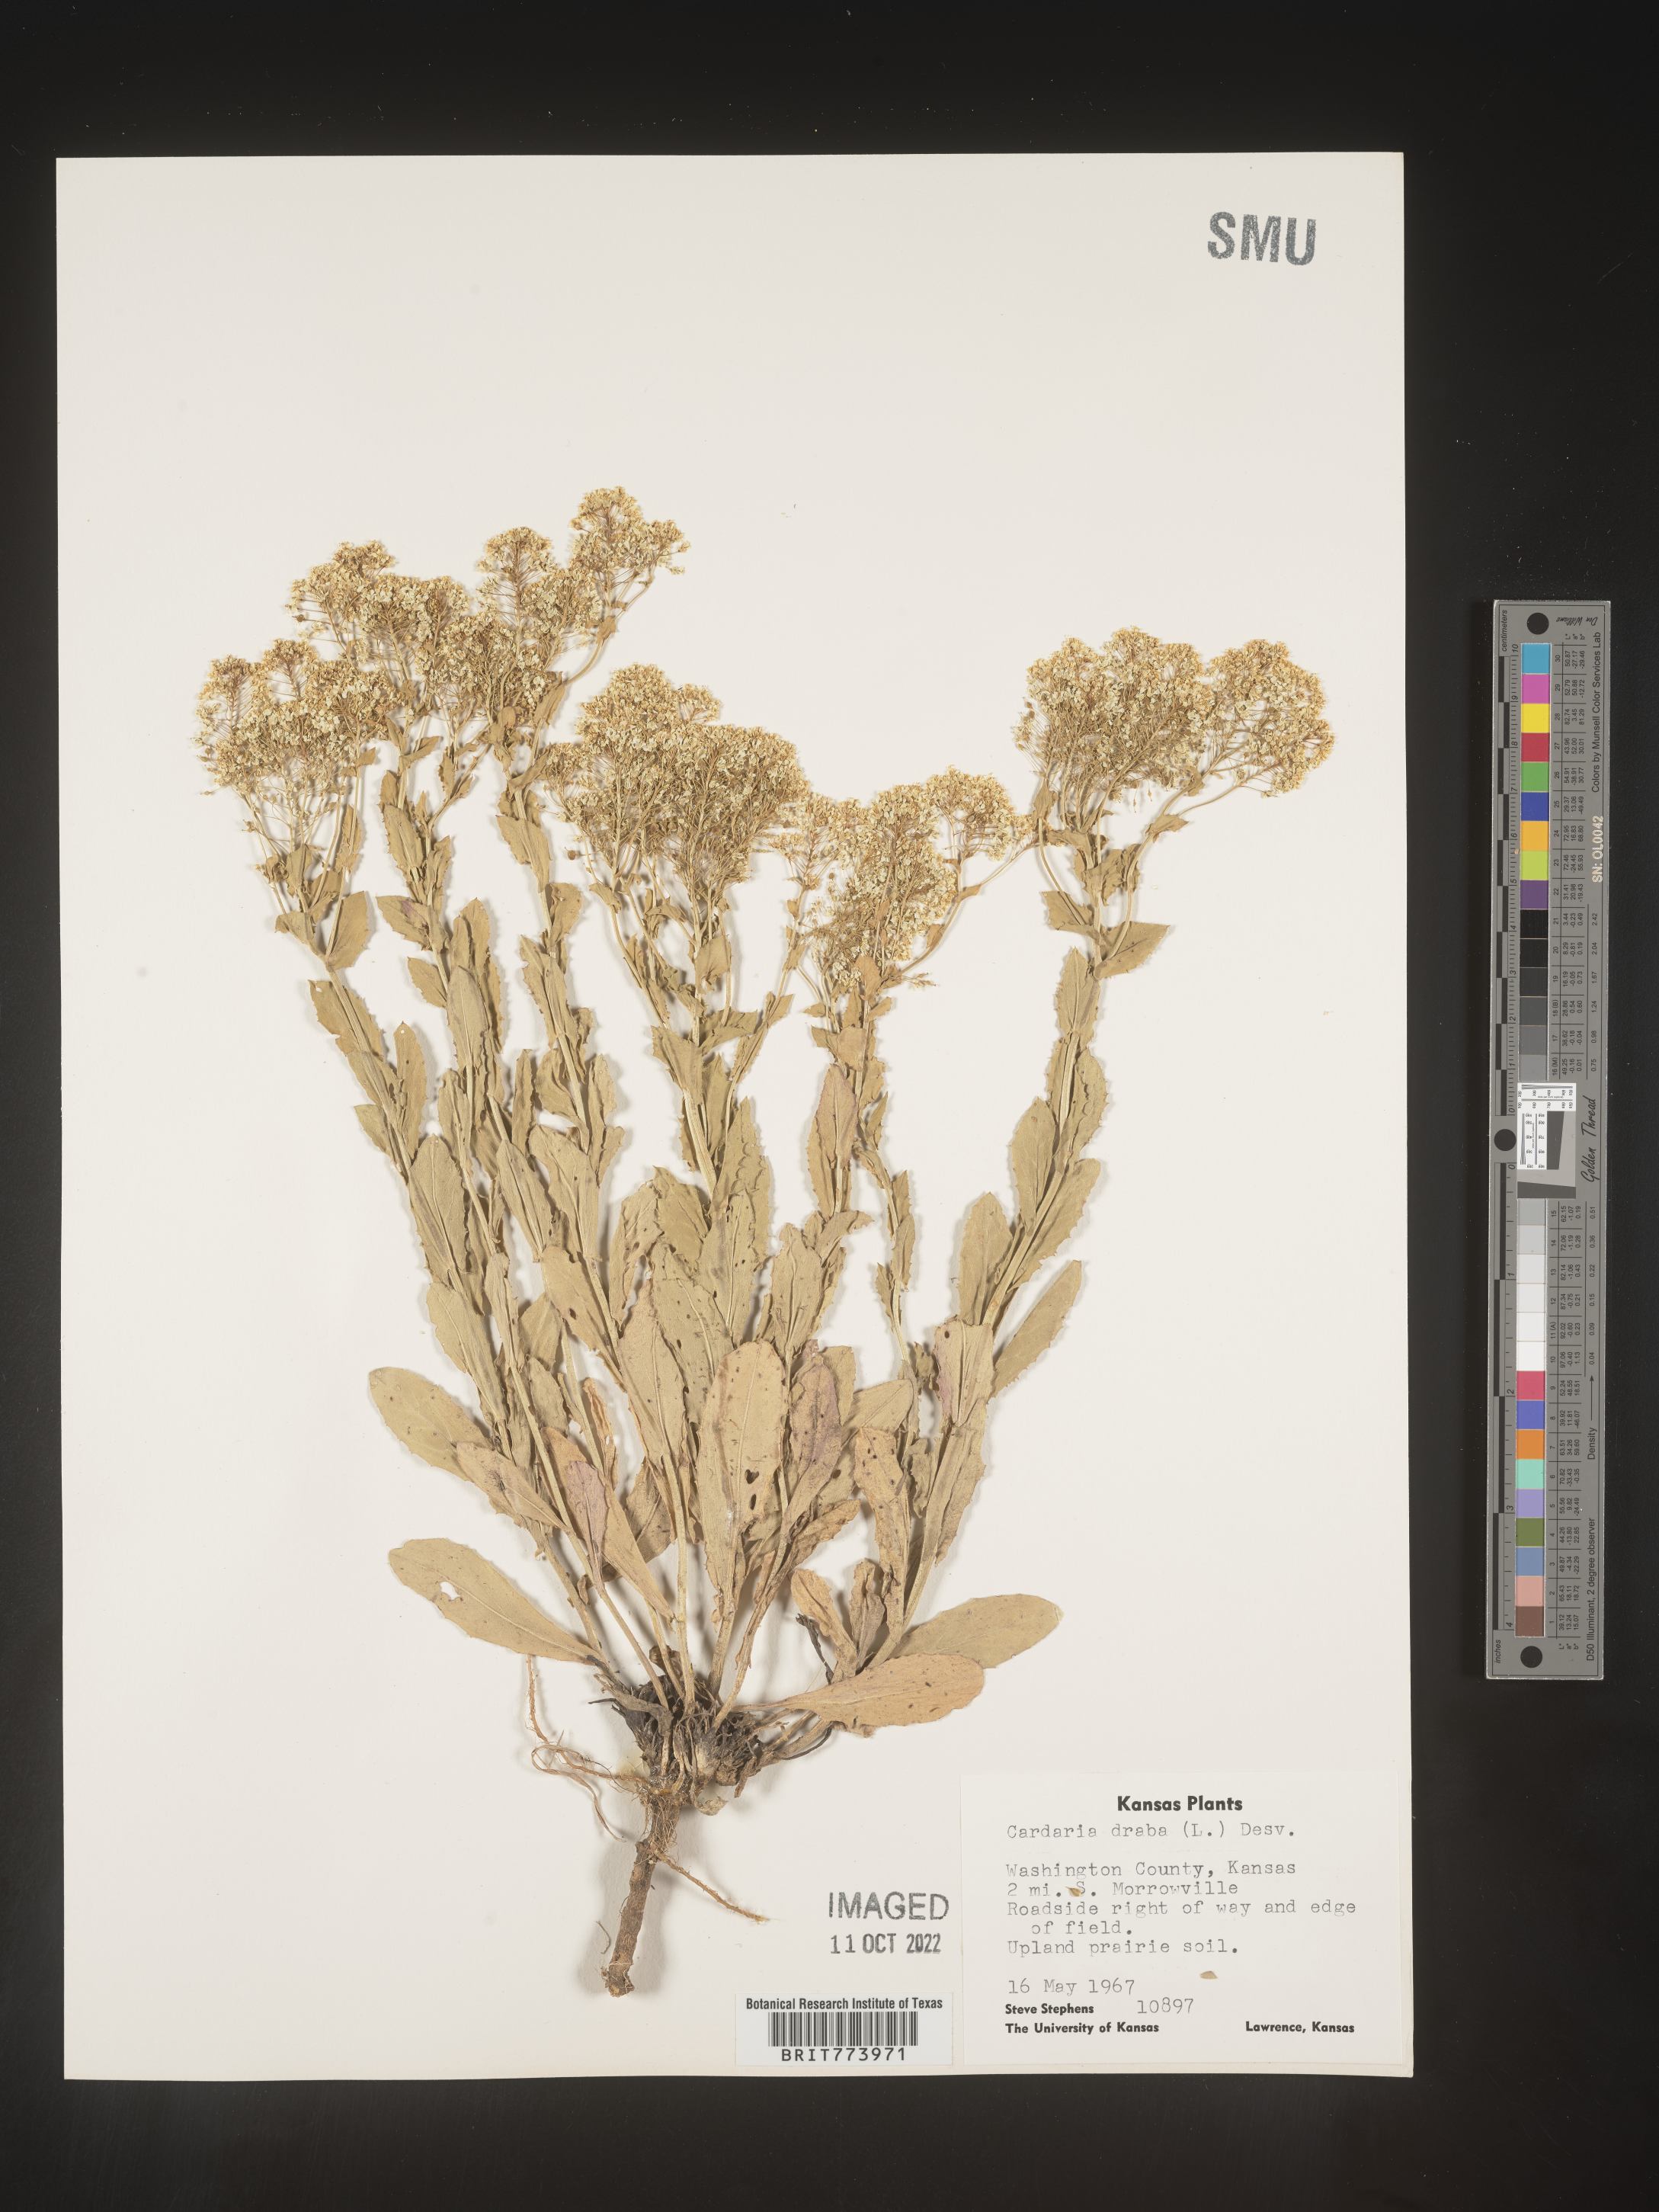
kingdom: Plantae
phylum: Tracheophyta
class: Magnoliopsida
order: Brassicales
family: Brassicaceae
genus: Lepidium
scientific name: Lepidium draba
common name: Hoary cress
